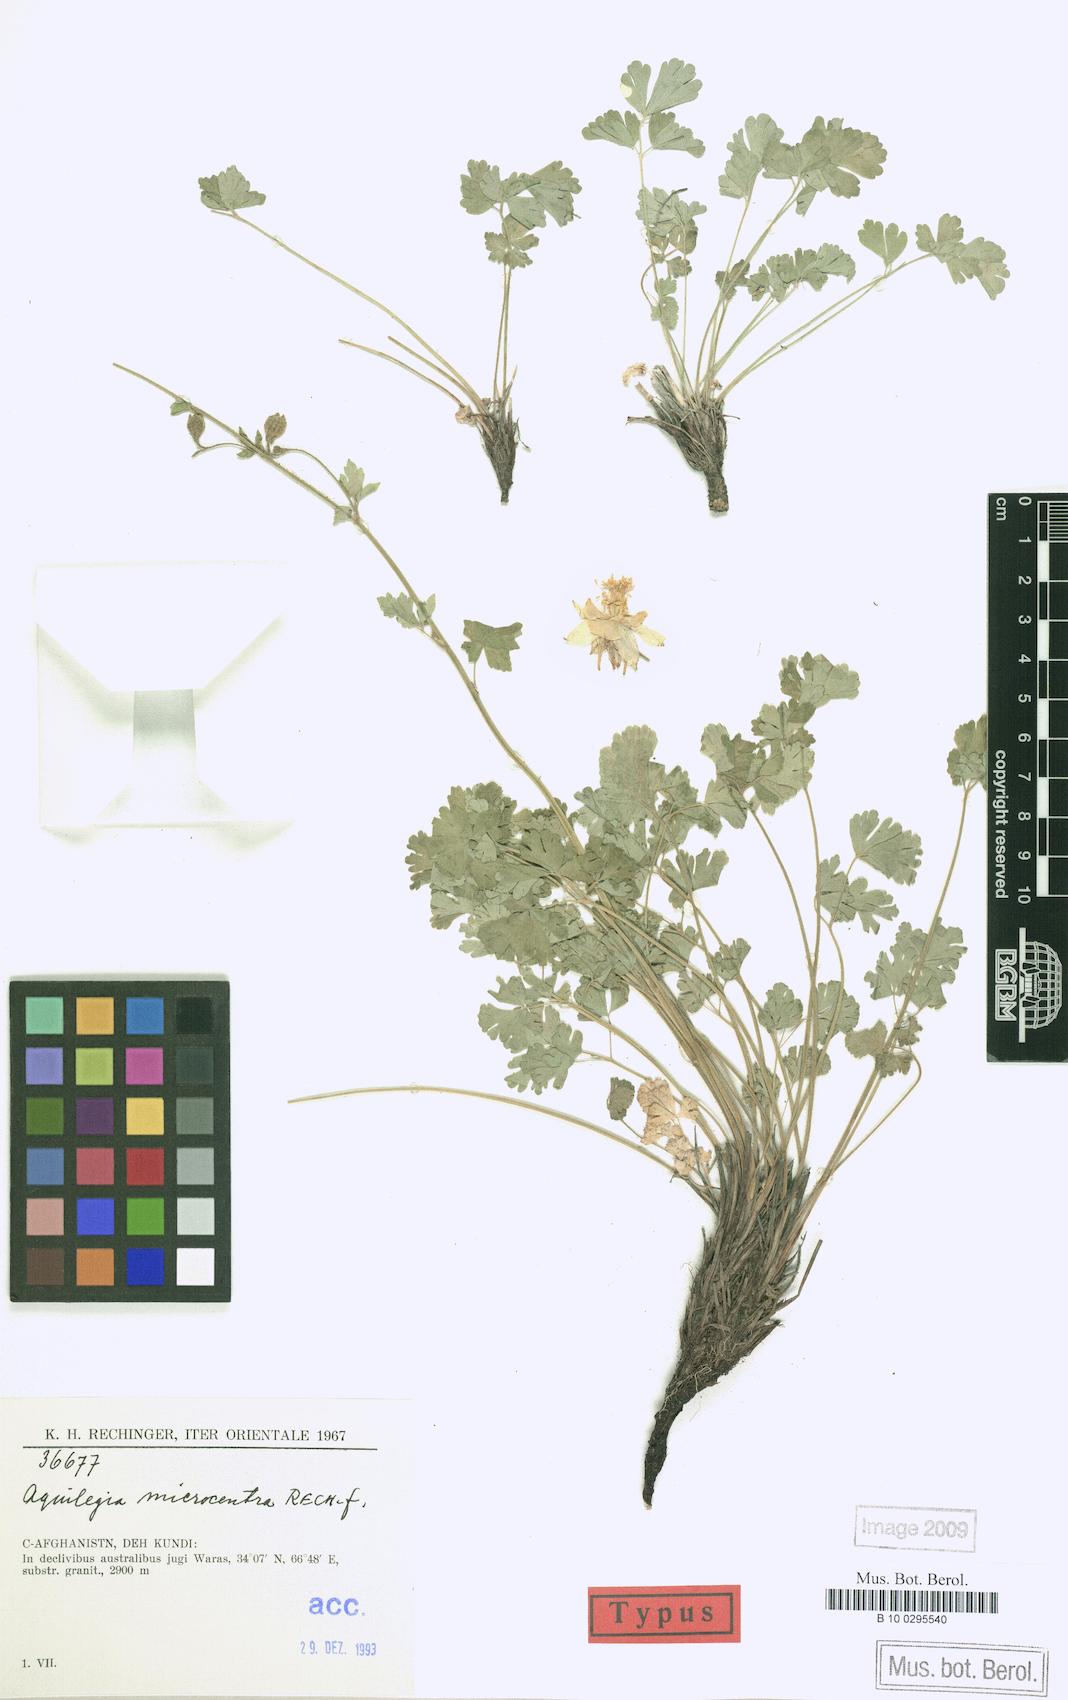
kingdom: Plantae
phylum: Tracheophyta
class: Magnoliopsida
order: Ranunculales
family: Ranunculaceae
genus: Aquilegia
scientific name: Aquilegia microcentra
